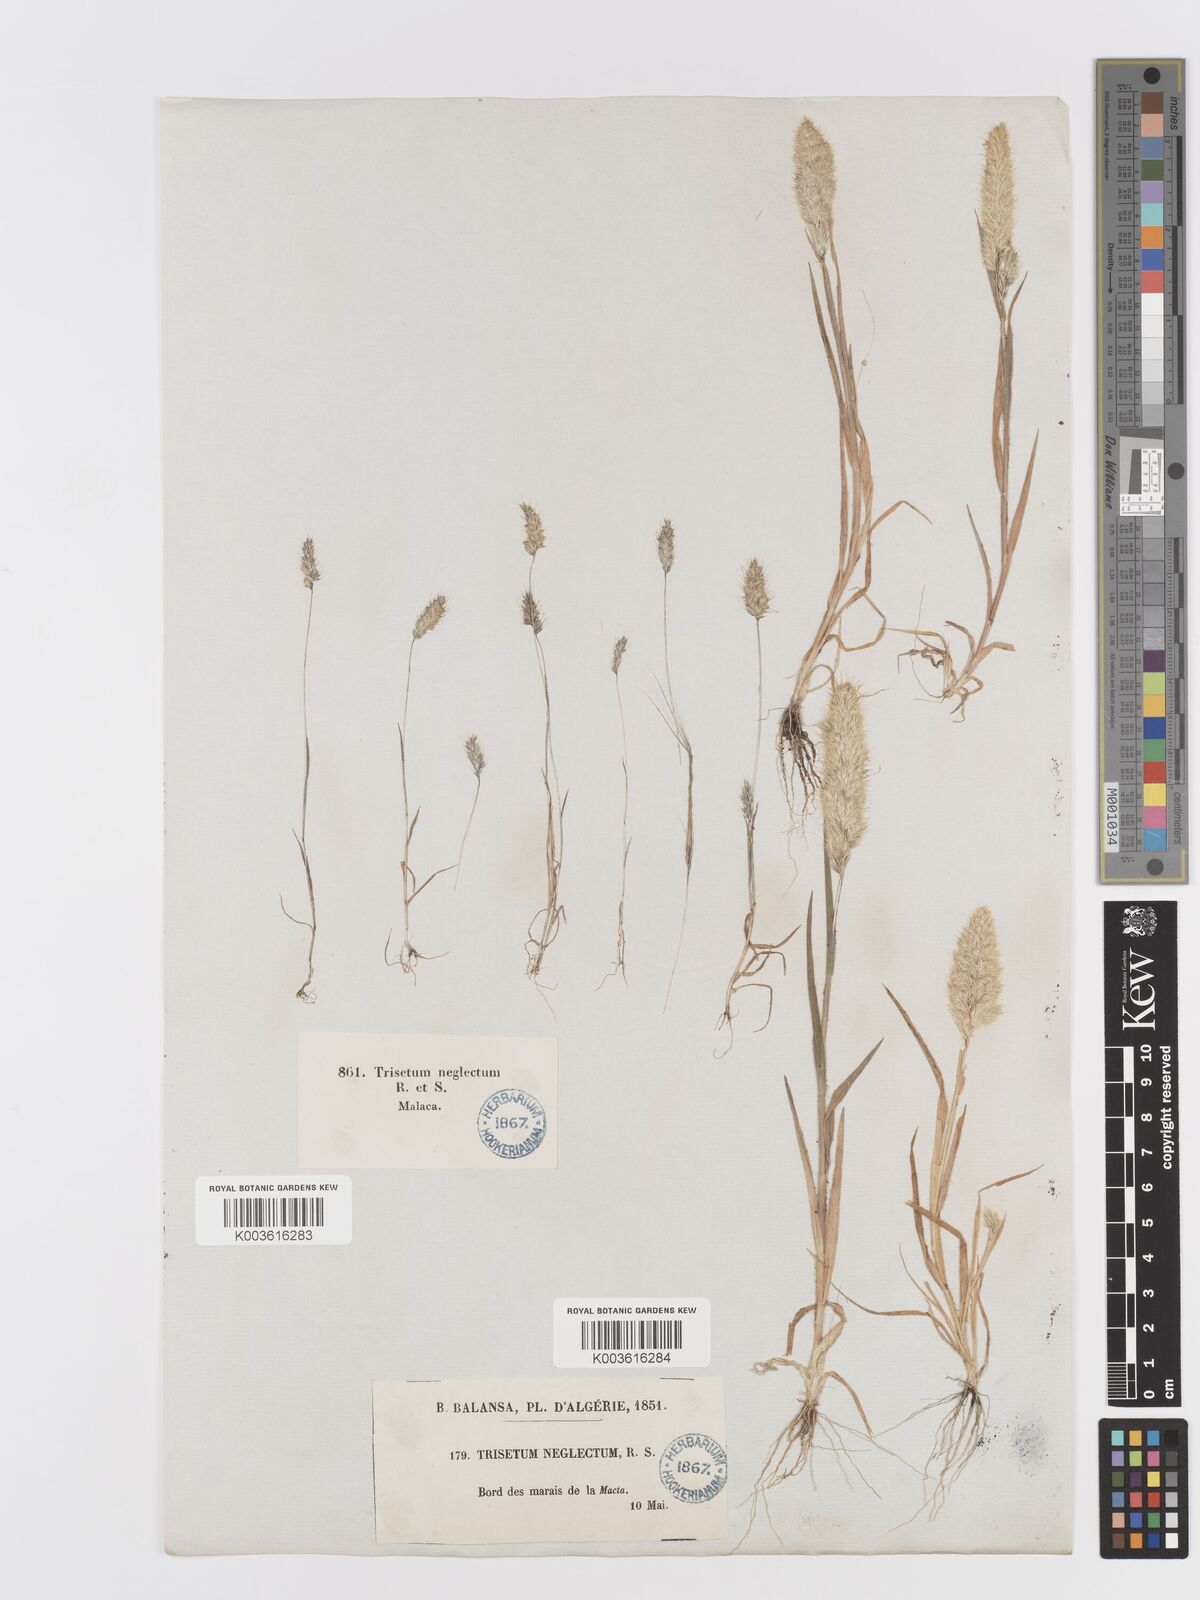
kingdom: Plantae
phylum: Tracheophyta
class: Liliopsida
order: Poales
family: Poaceae
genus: Trisetaria
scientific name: Trisetaria panicea
